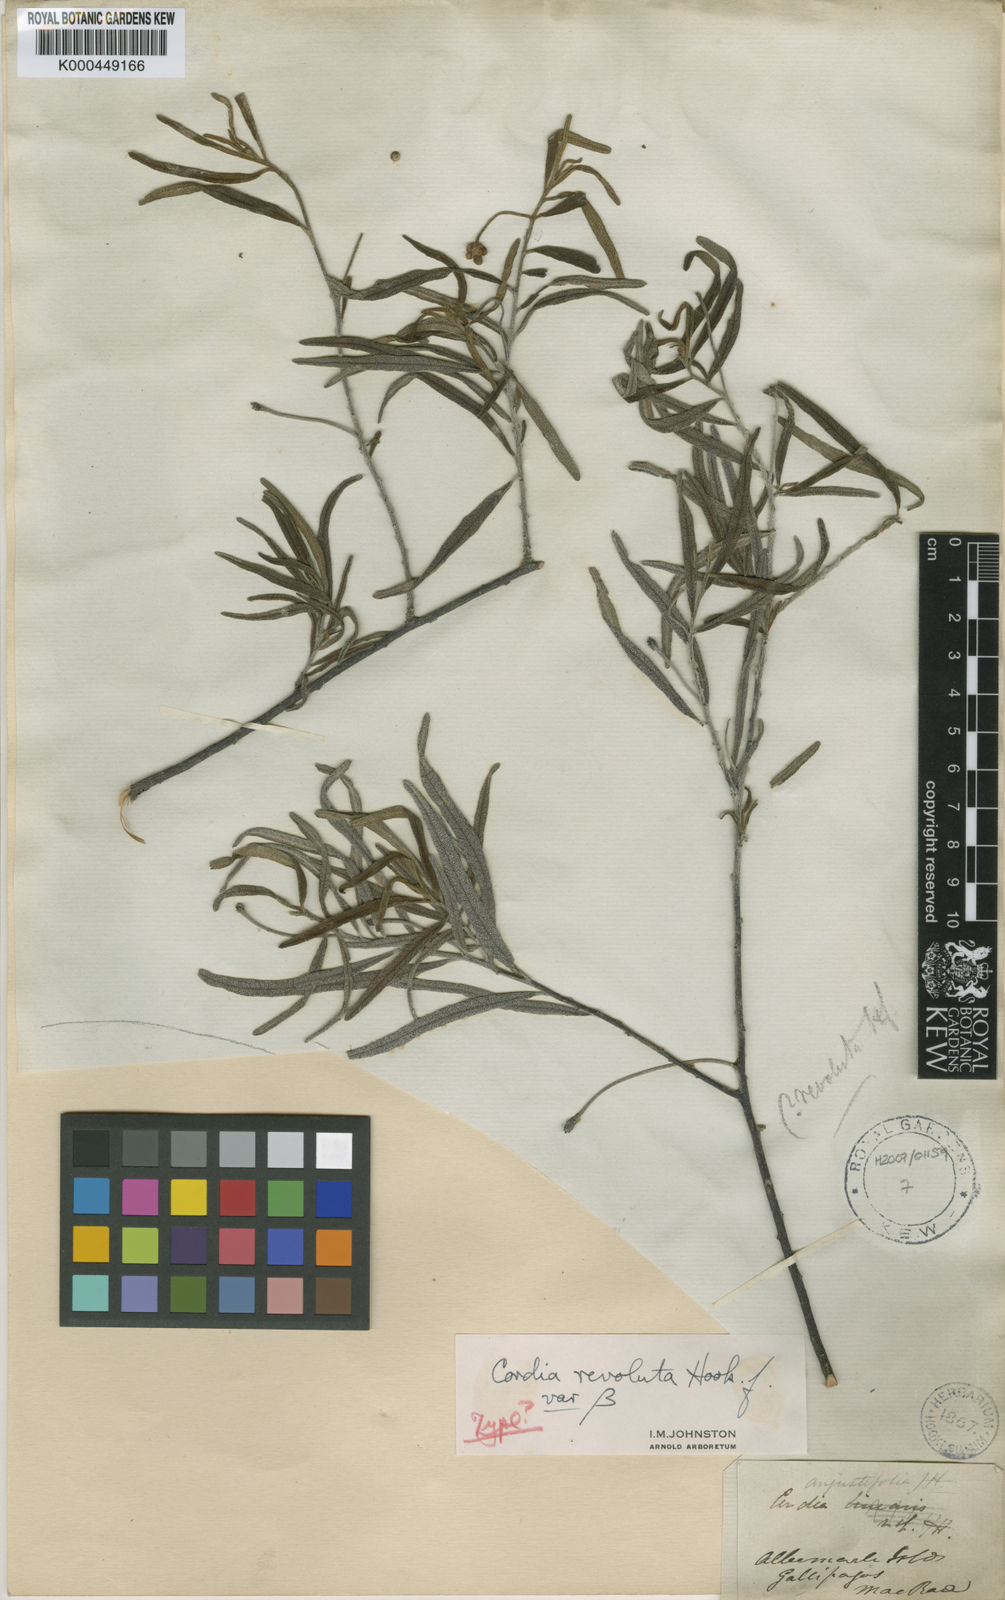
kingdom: Plantae
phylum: Tracheophyta
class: Magnoliopsida
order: Boraginales
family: Cordiaceae
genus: Varronia
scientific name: Varronia revoluta
